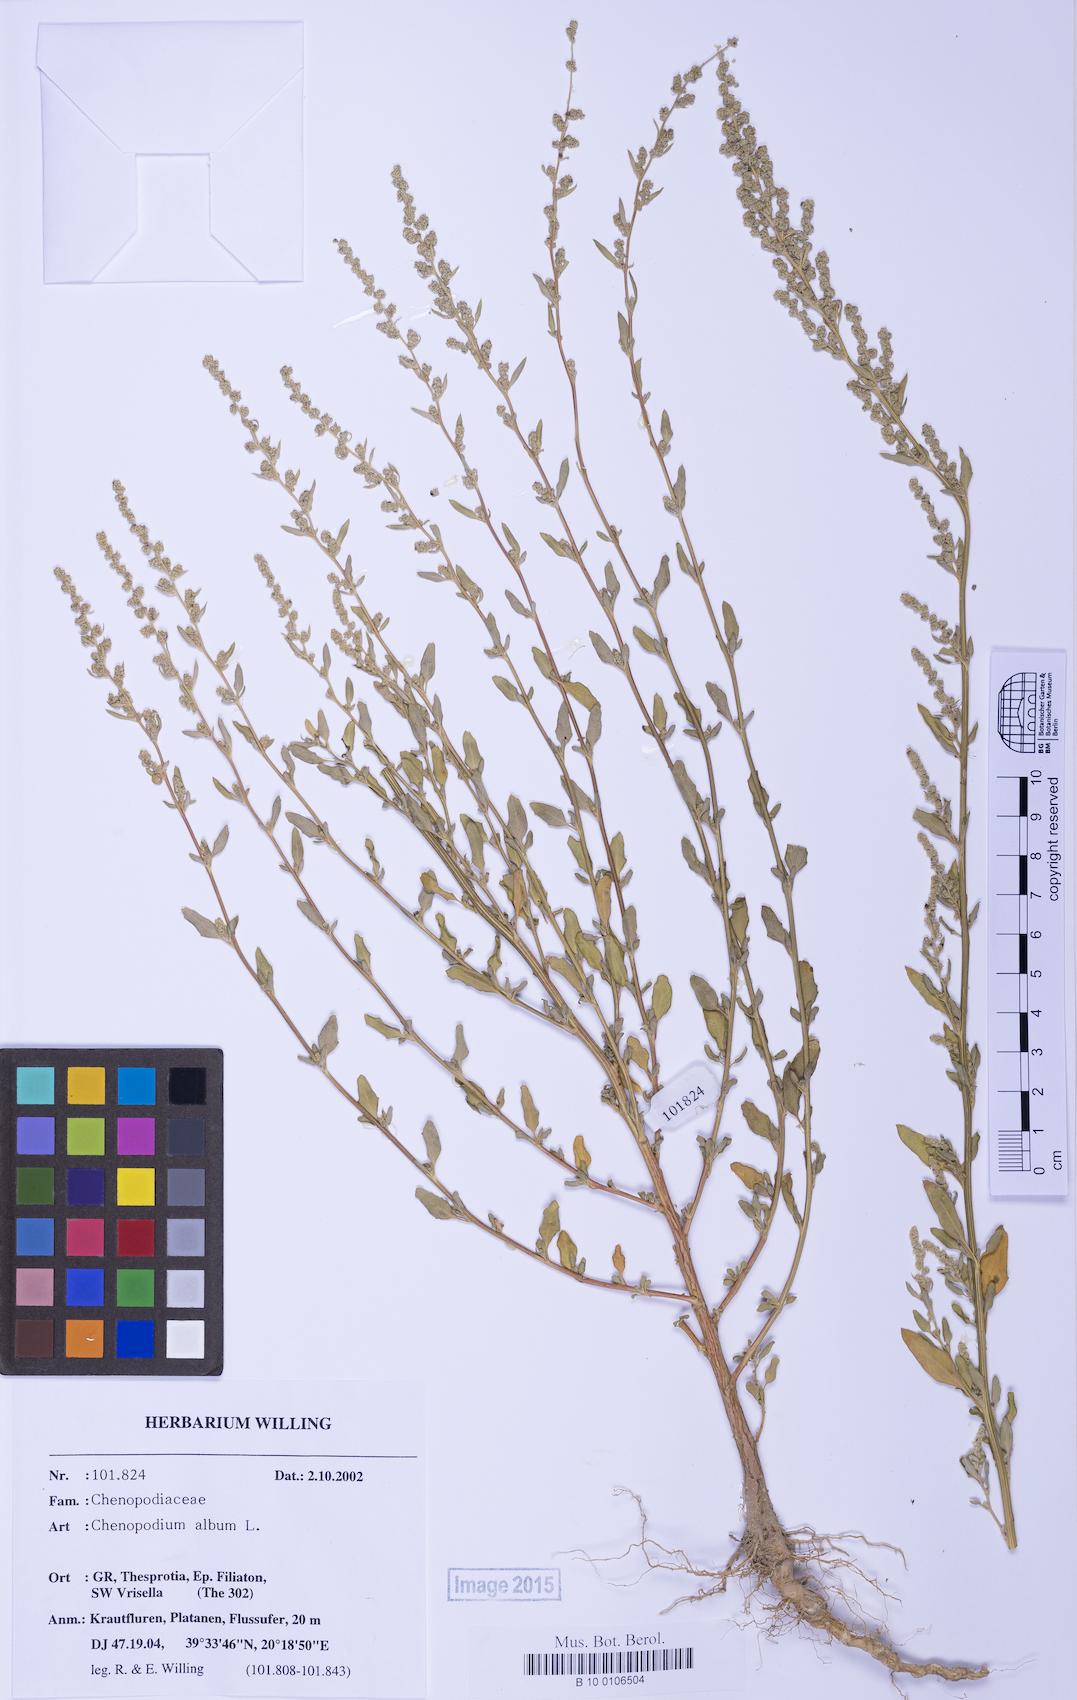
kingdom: Plantae
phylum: Tracheophyta
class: Magnoliopsida
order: Caryophyllales
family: Amaranthaceae
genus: Chenopodium
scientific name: Chenopodium striatiforme
